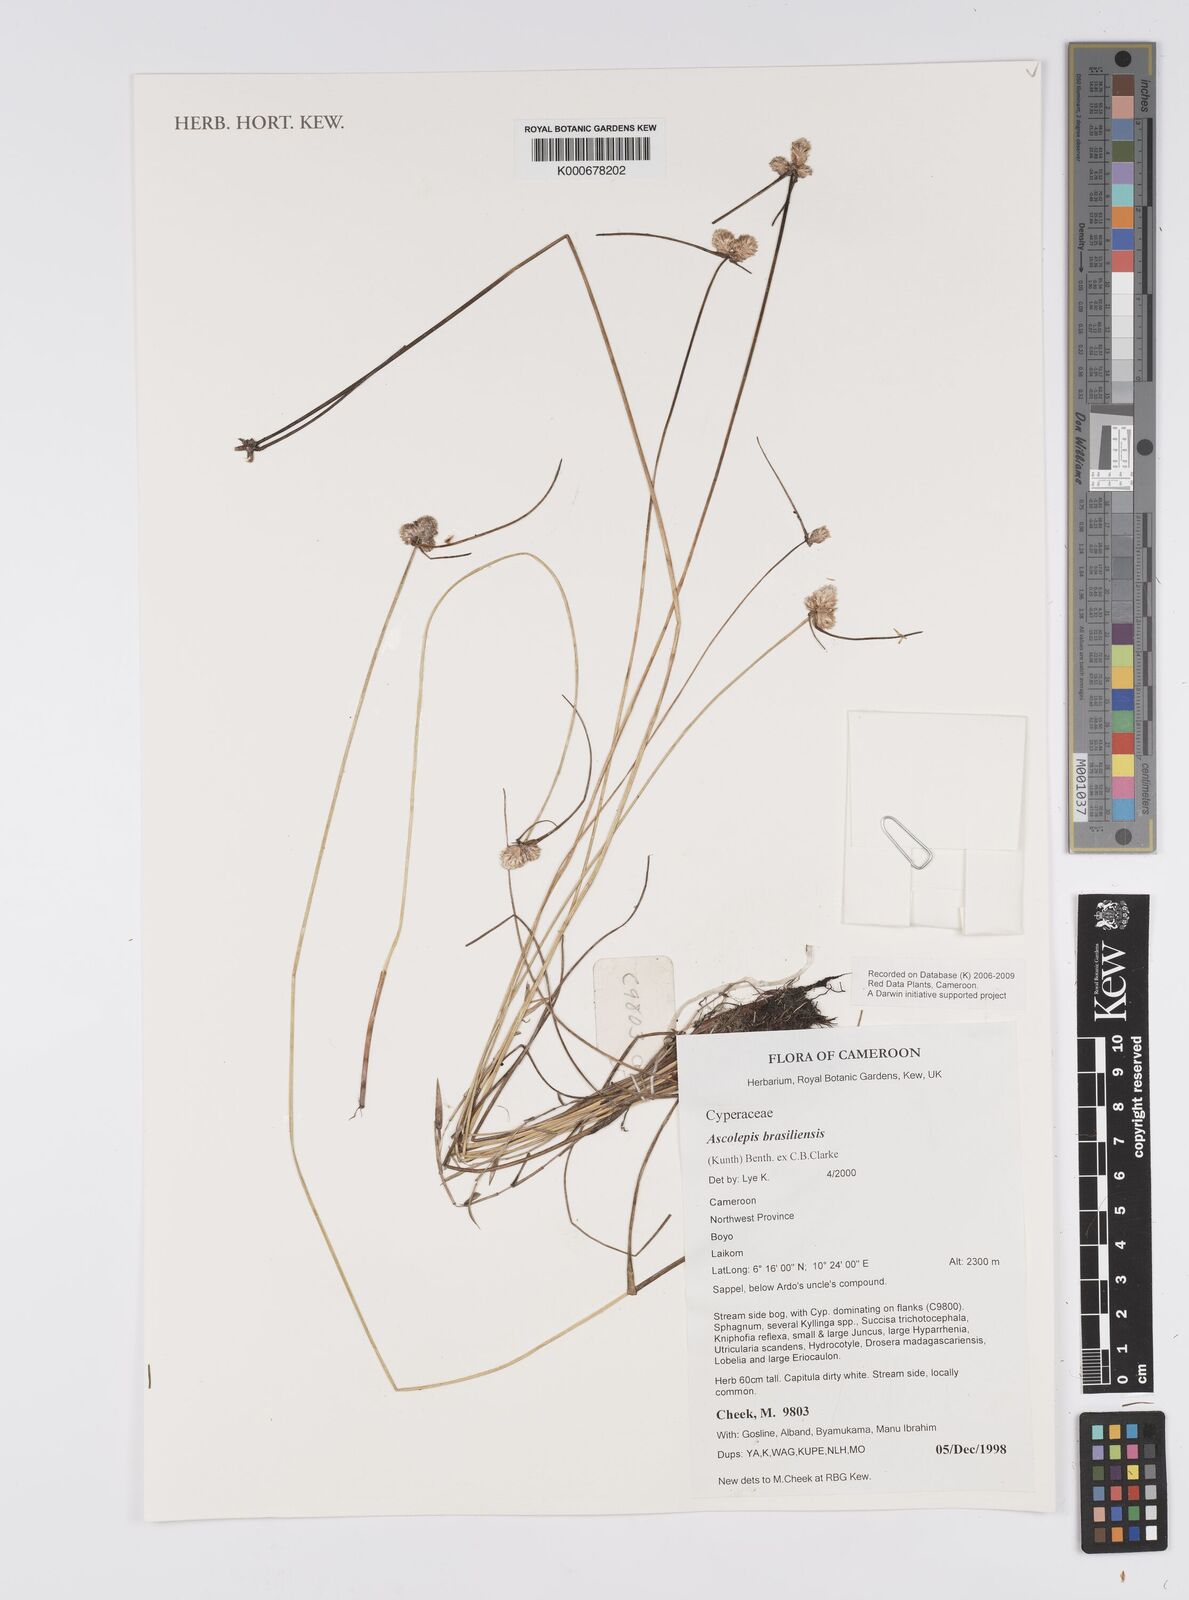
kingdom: Plantae
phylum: Tracheophyta
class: Liliopsida
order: Poales
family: Cyperaceae
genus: Cyperus
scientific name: Cyperus brasiliensis
